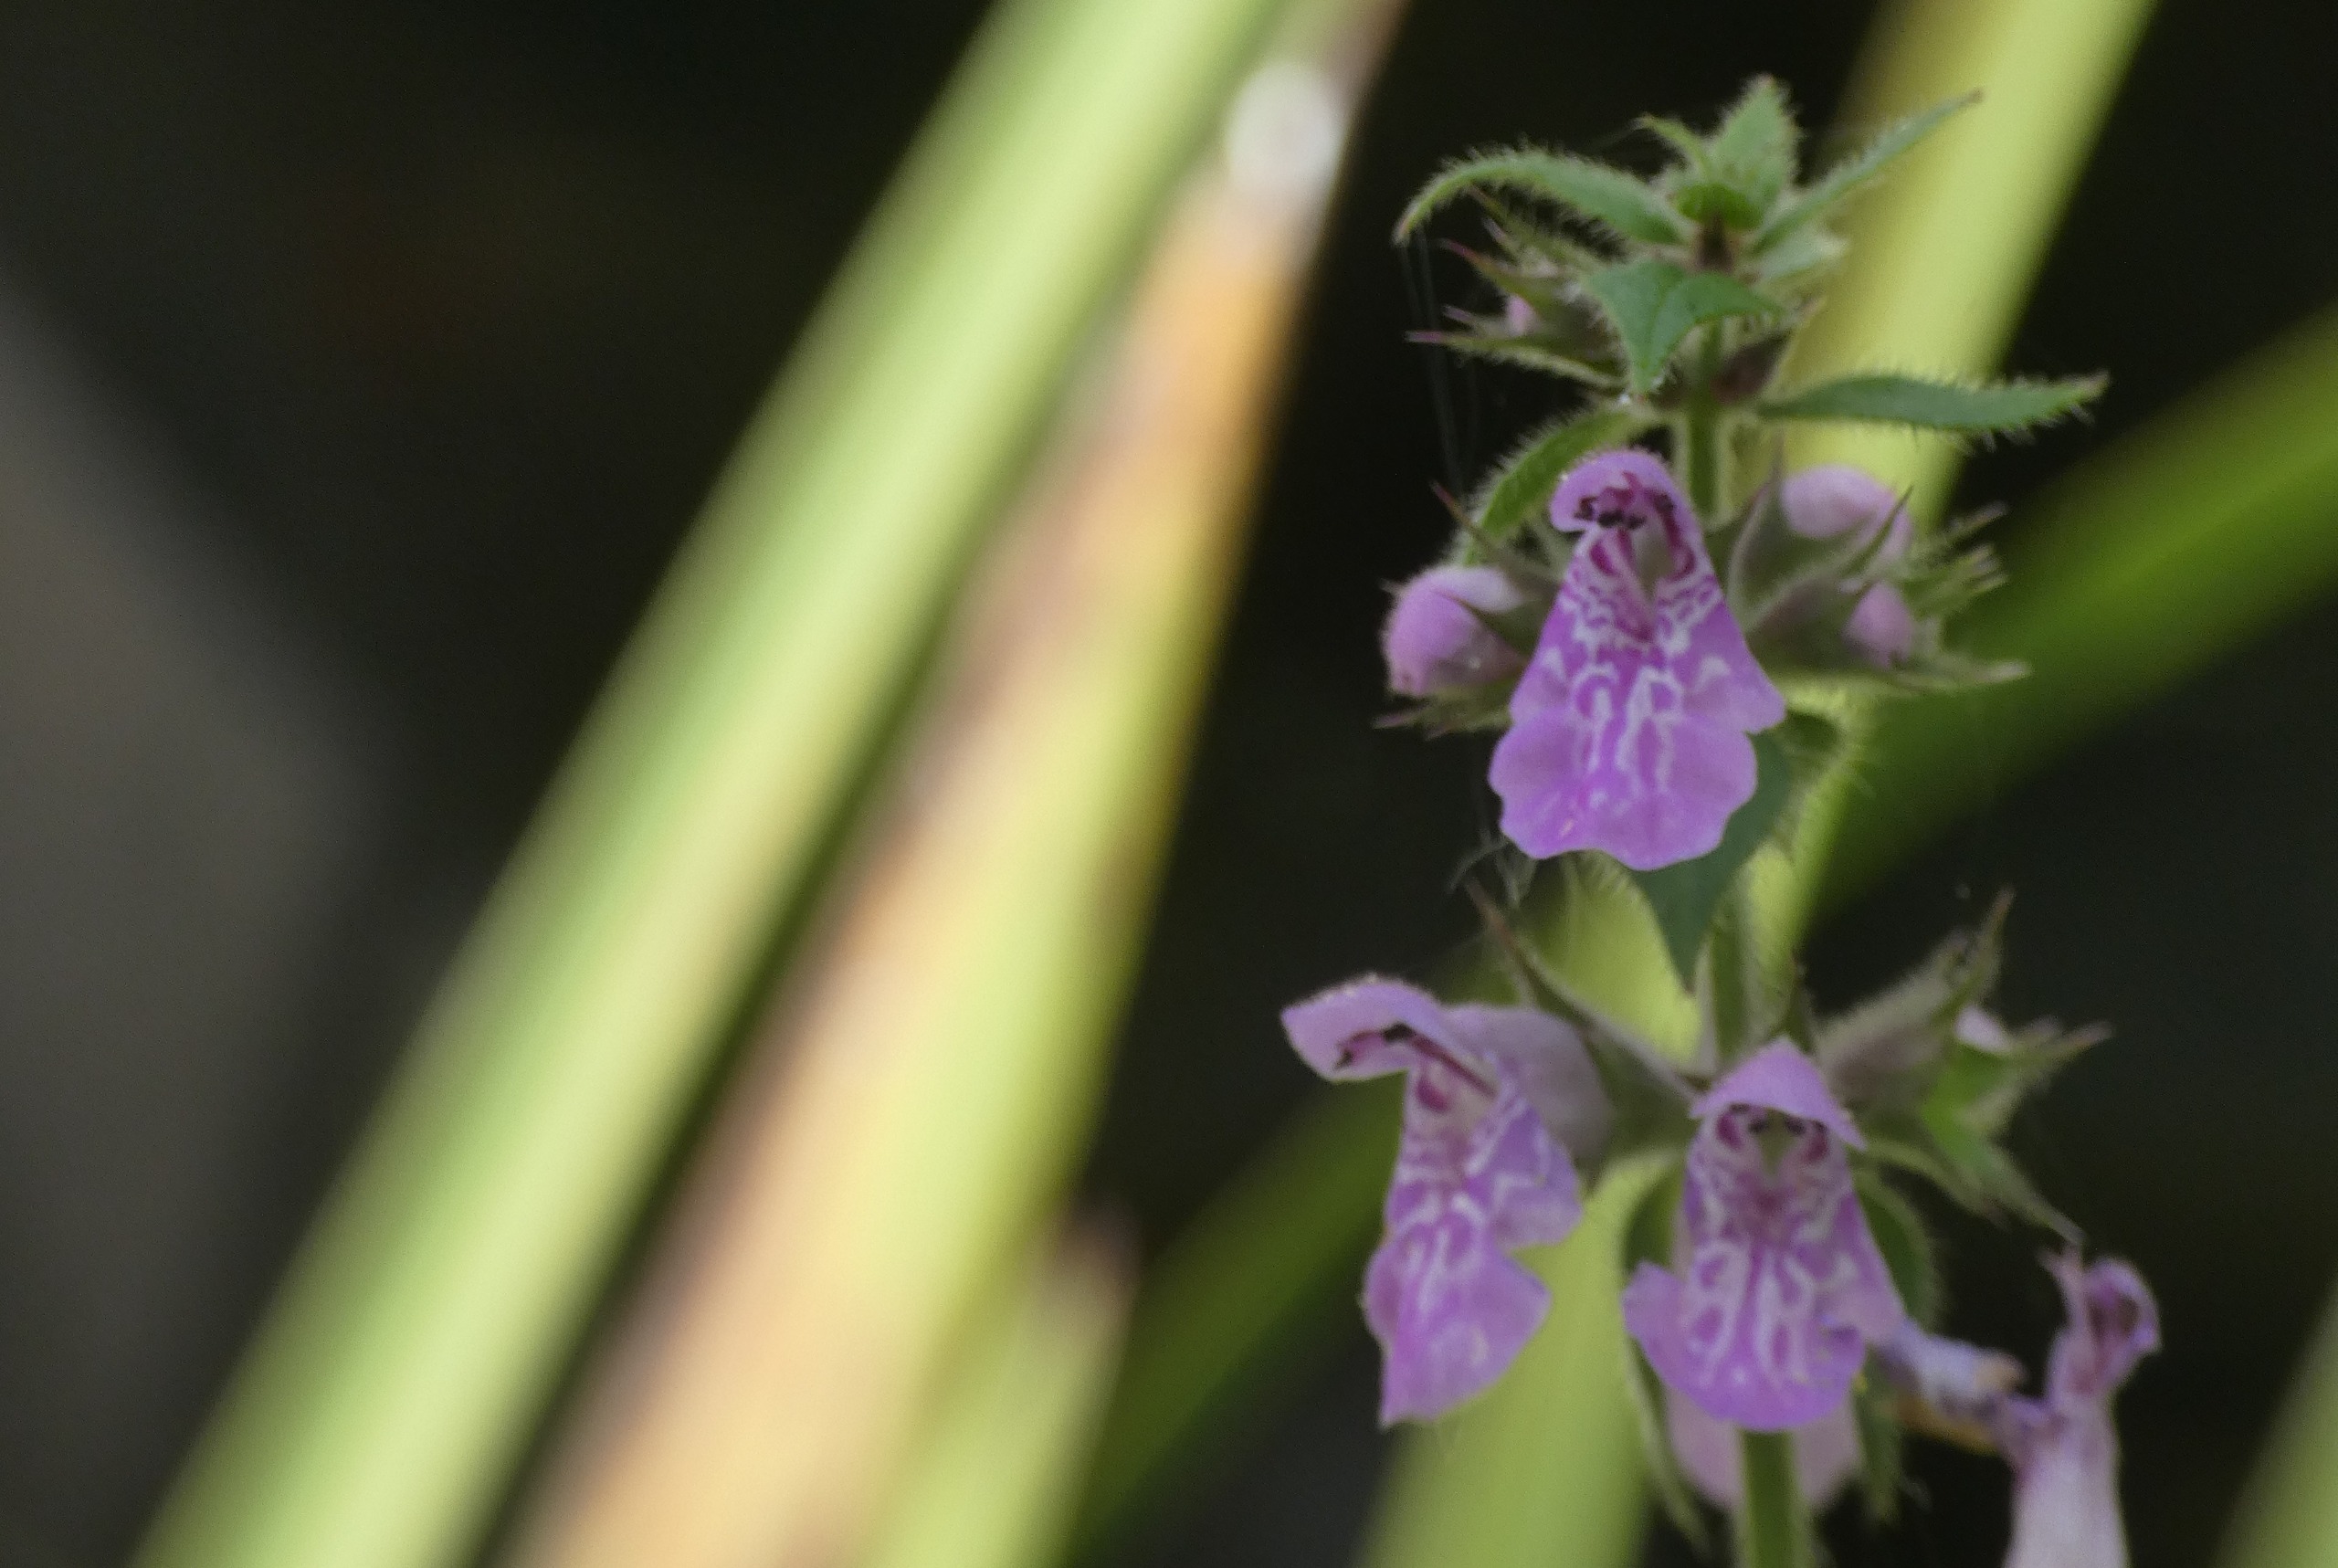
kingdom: Plantae
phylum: Tracheophyta
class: Magnoliopsida
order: Lamiales
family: Lamiaceae
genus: Stachys
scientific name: Stachys palustris
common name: Kær-galtetand
